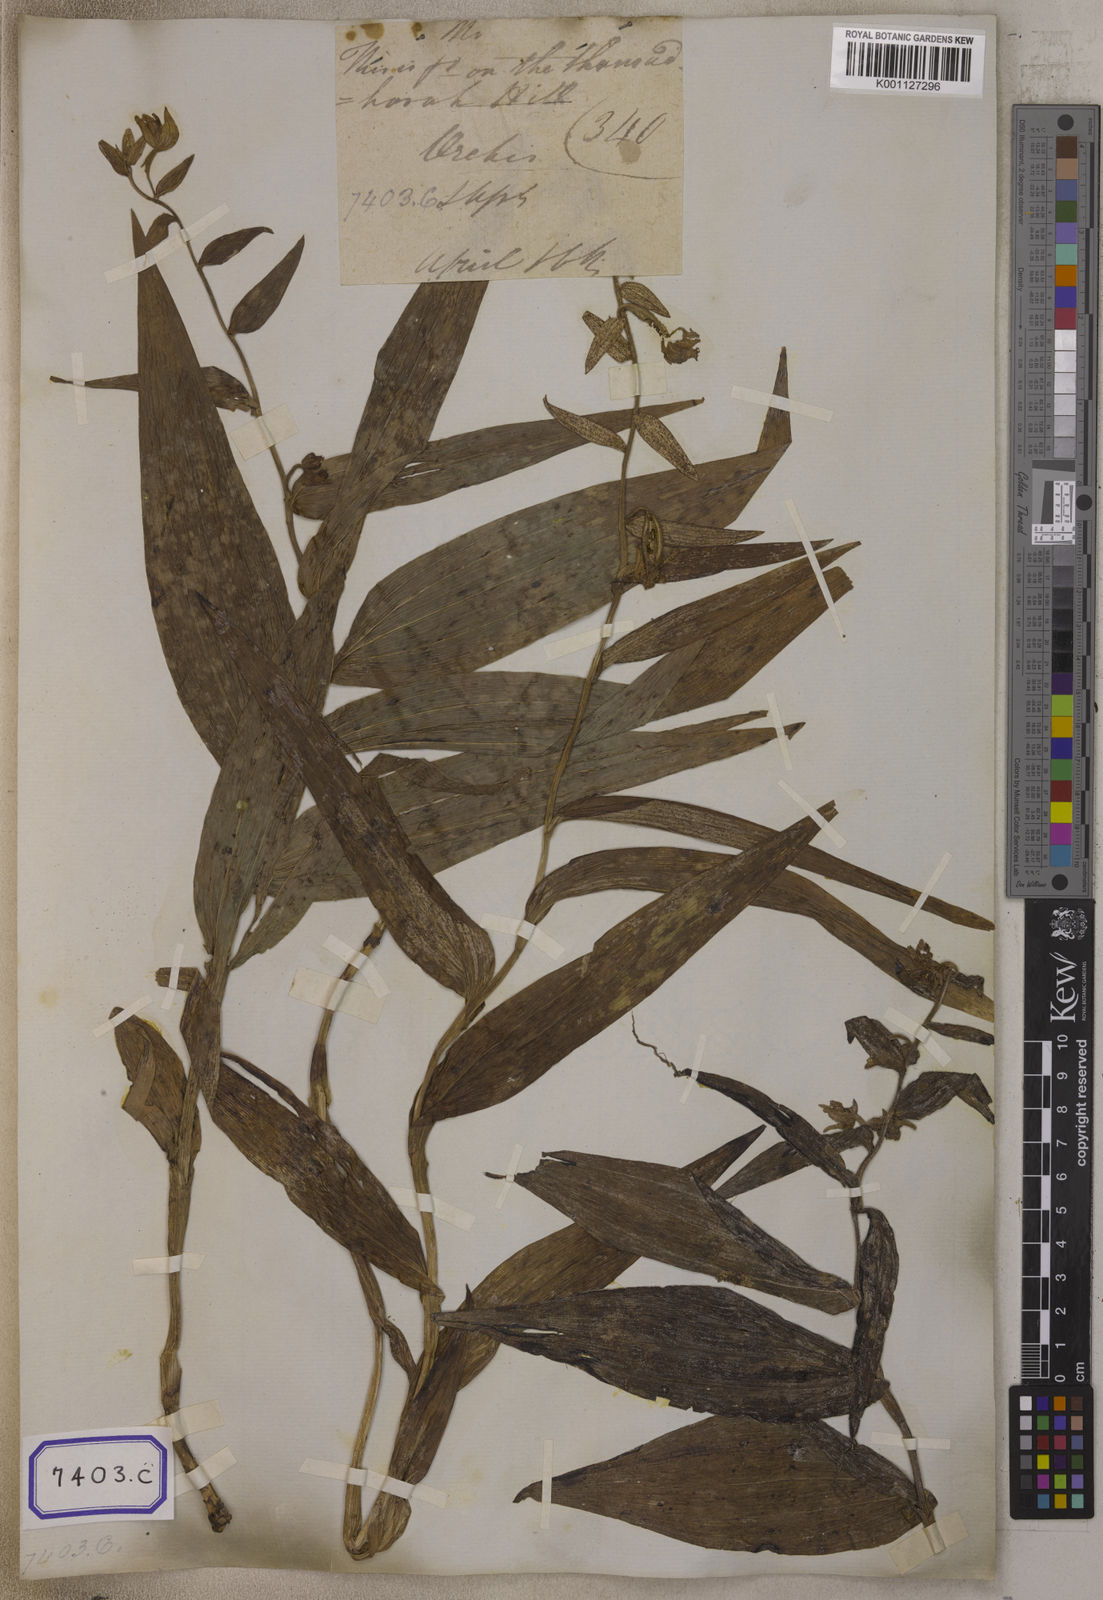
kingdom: Plantae
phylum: Tracheophyta
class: Liliopsida
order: Asparagales
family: Orchidaceae
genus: Epipactis
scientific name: Epipactis
